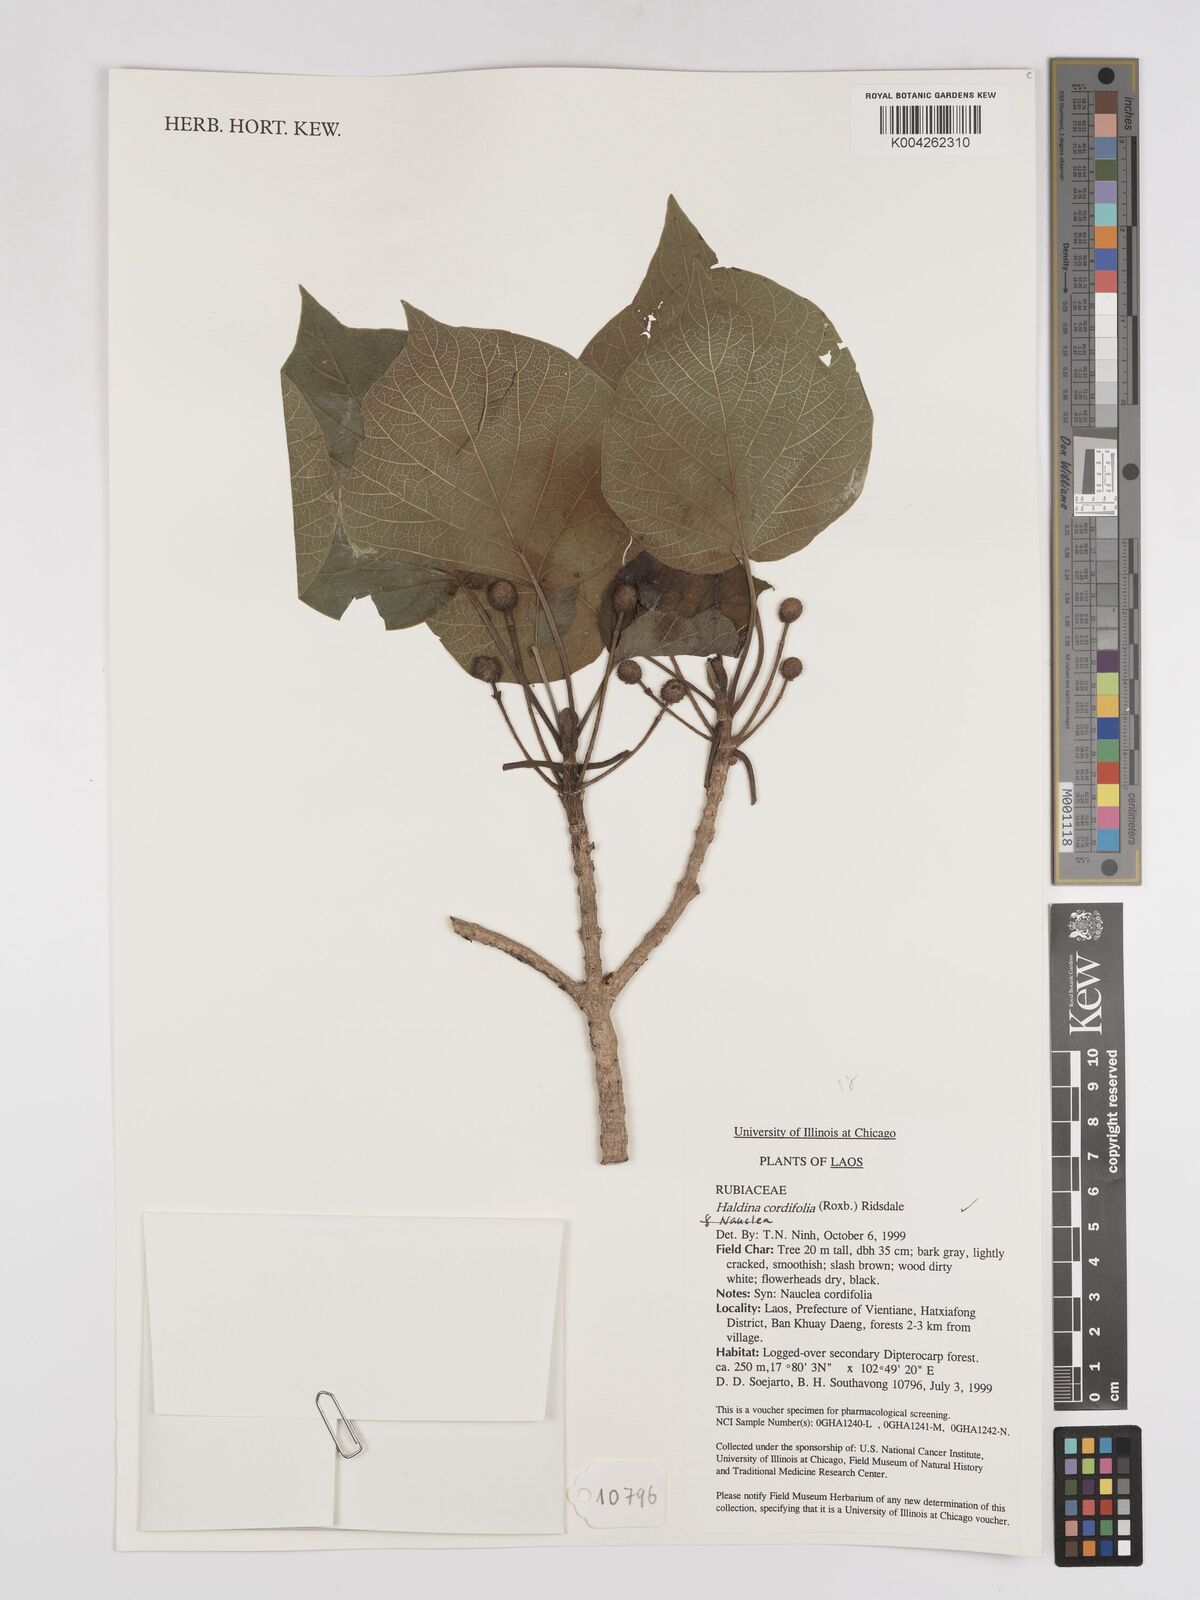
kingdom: Plantae
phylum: Tracheophyta
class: Magnoliopsida
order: Gentianales
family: Rubiaceae
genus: Adina
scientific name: Adina cordifolia
